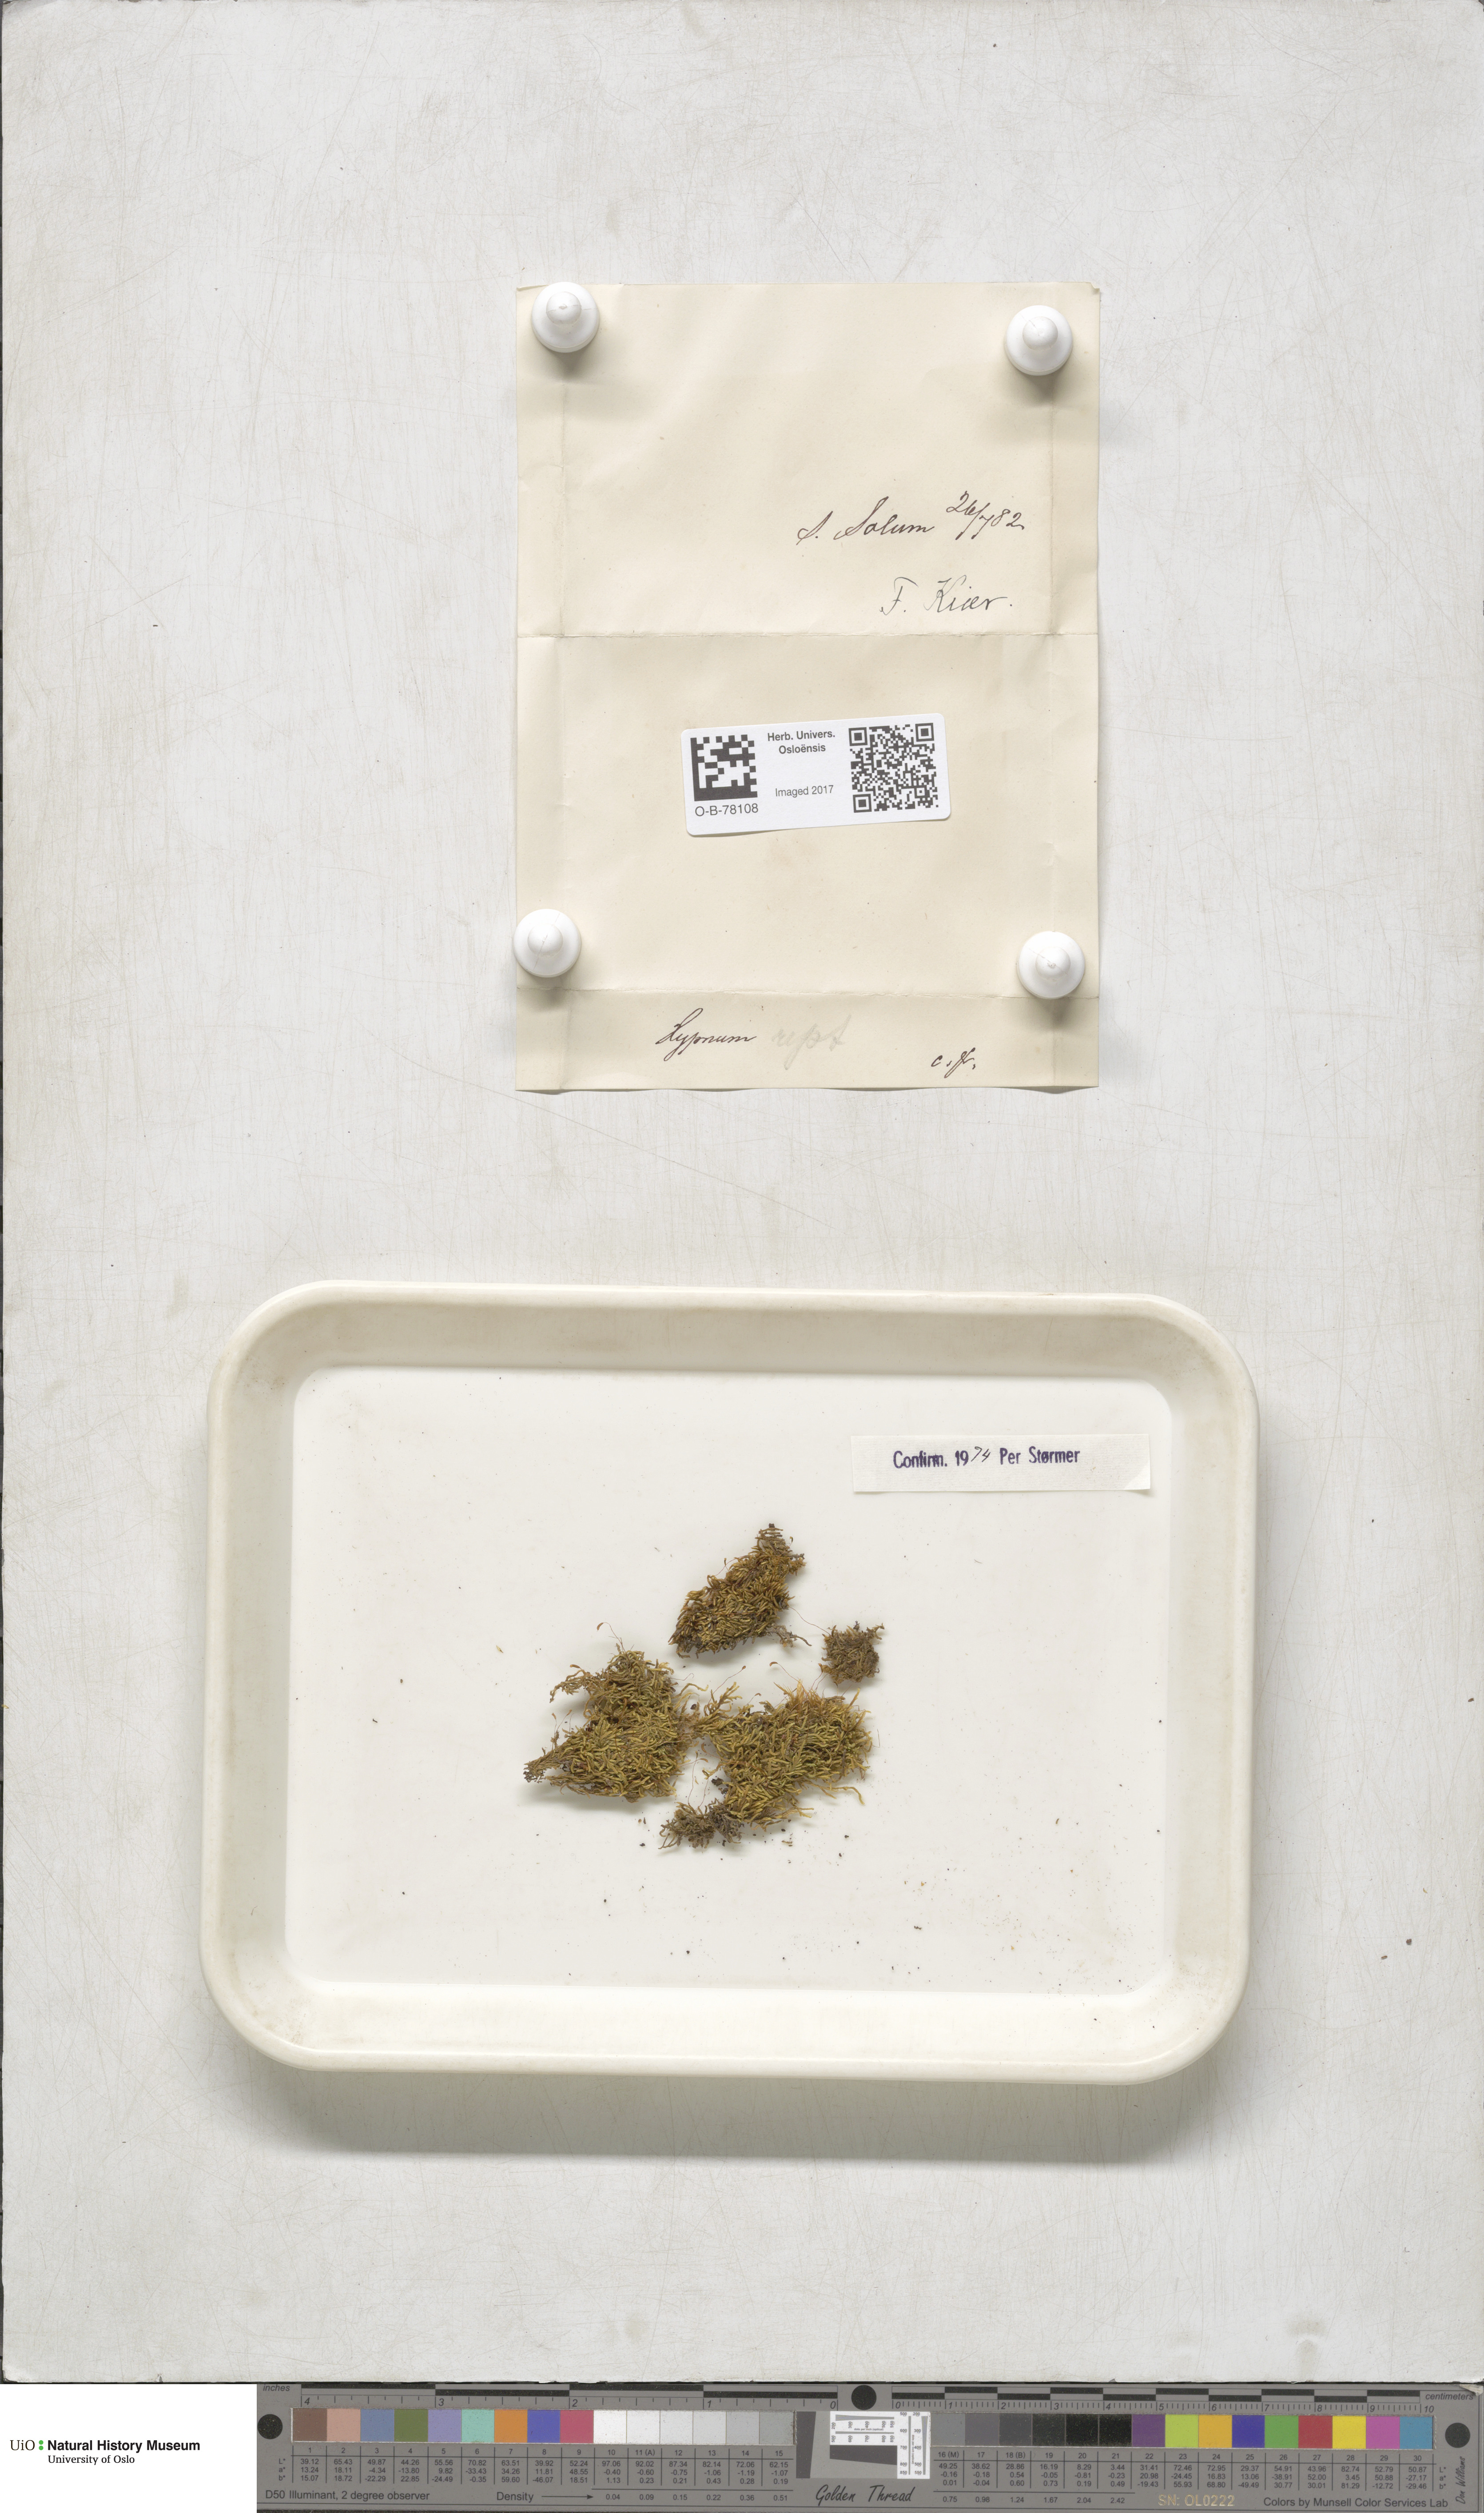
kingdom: Plantae
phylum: Bryophyta
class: Bryopsida
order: Hypnales
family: Jocheniaceae
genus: Jochenia
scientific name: Jochenia pallescens
